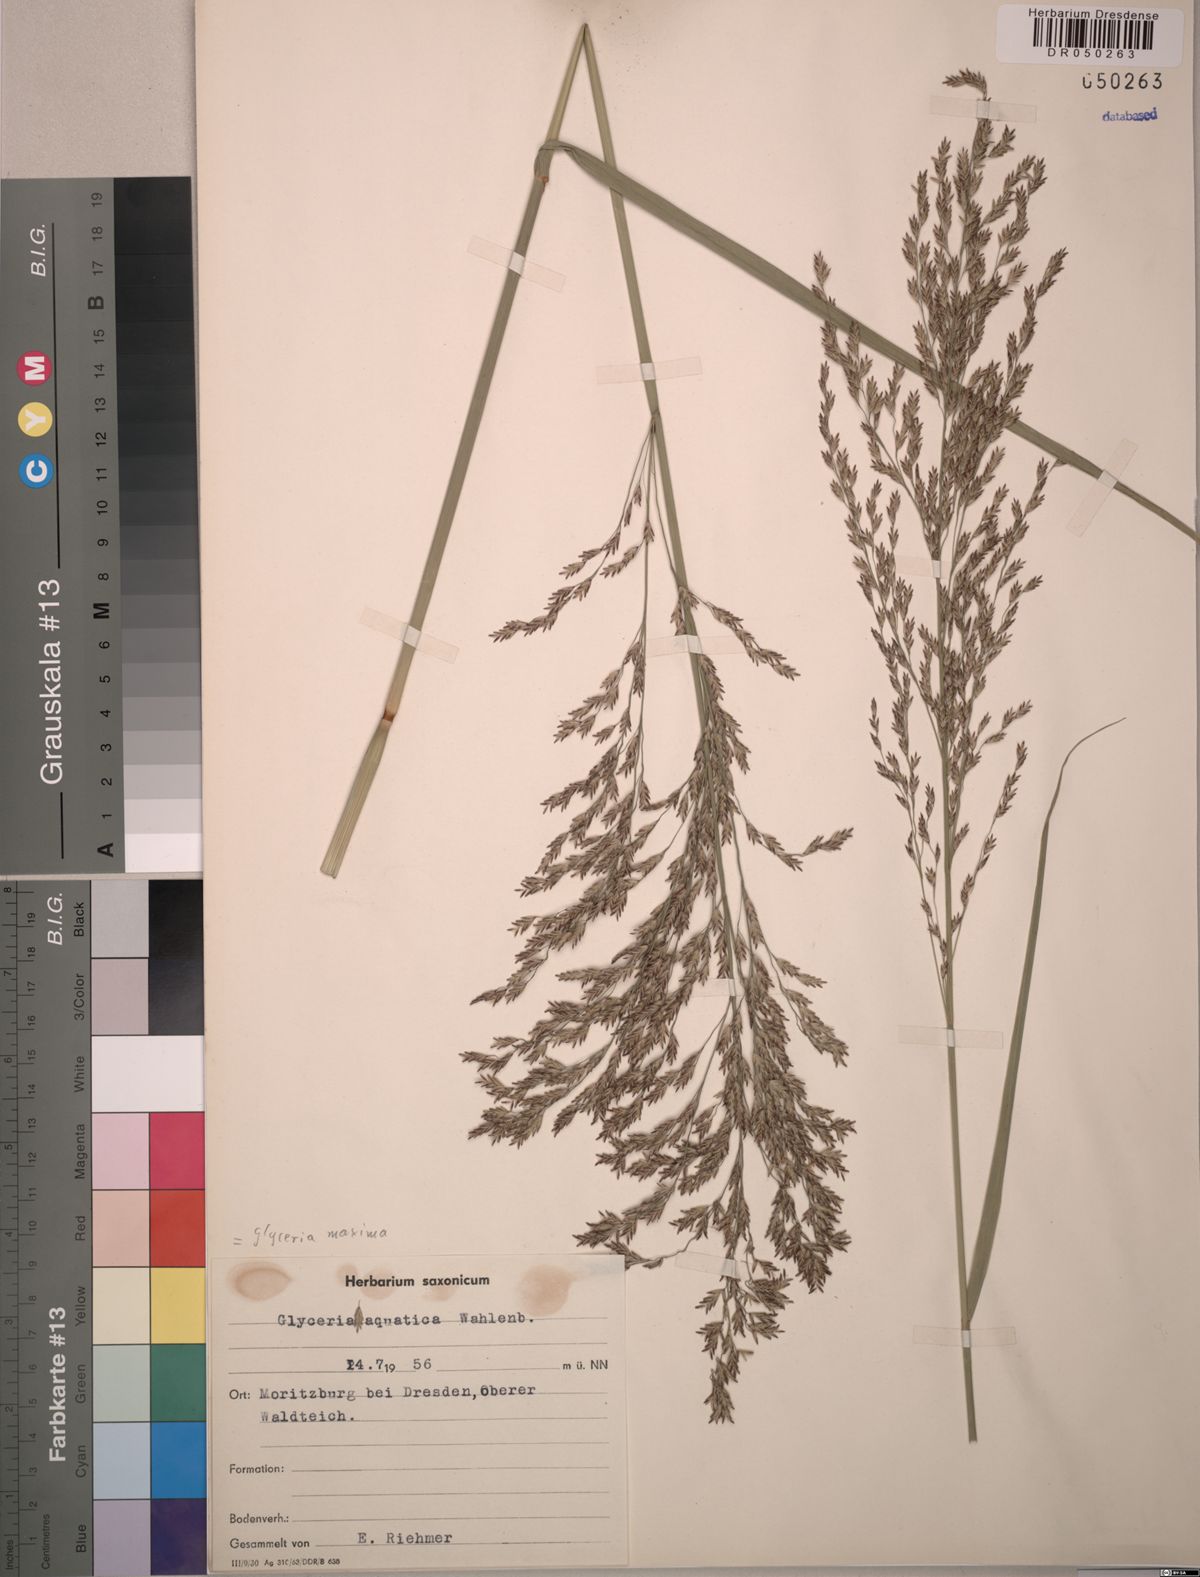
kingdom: Plantae
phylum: Tracheophyta
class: Liliopsida
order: Poales
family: Poaceae
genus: Glyceria
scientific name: Glyceria maxima
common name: Reed mannagrass
